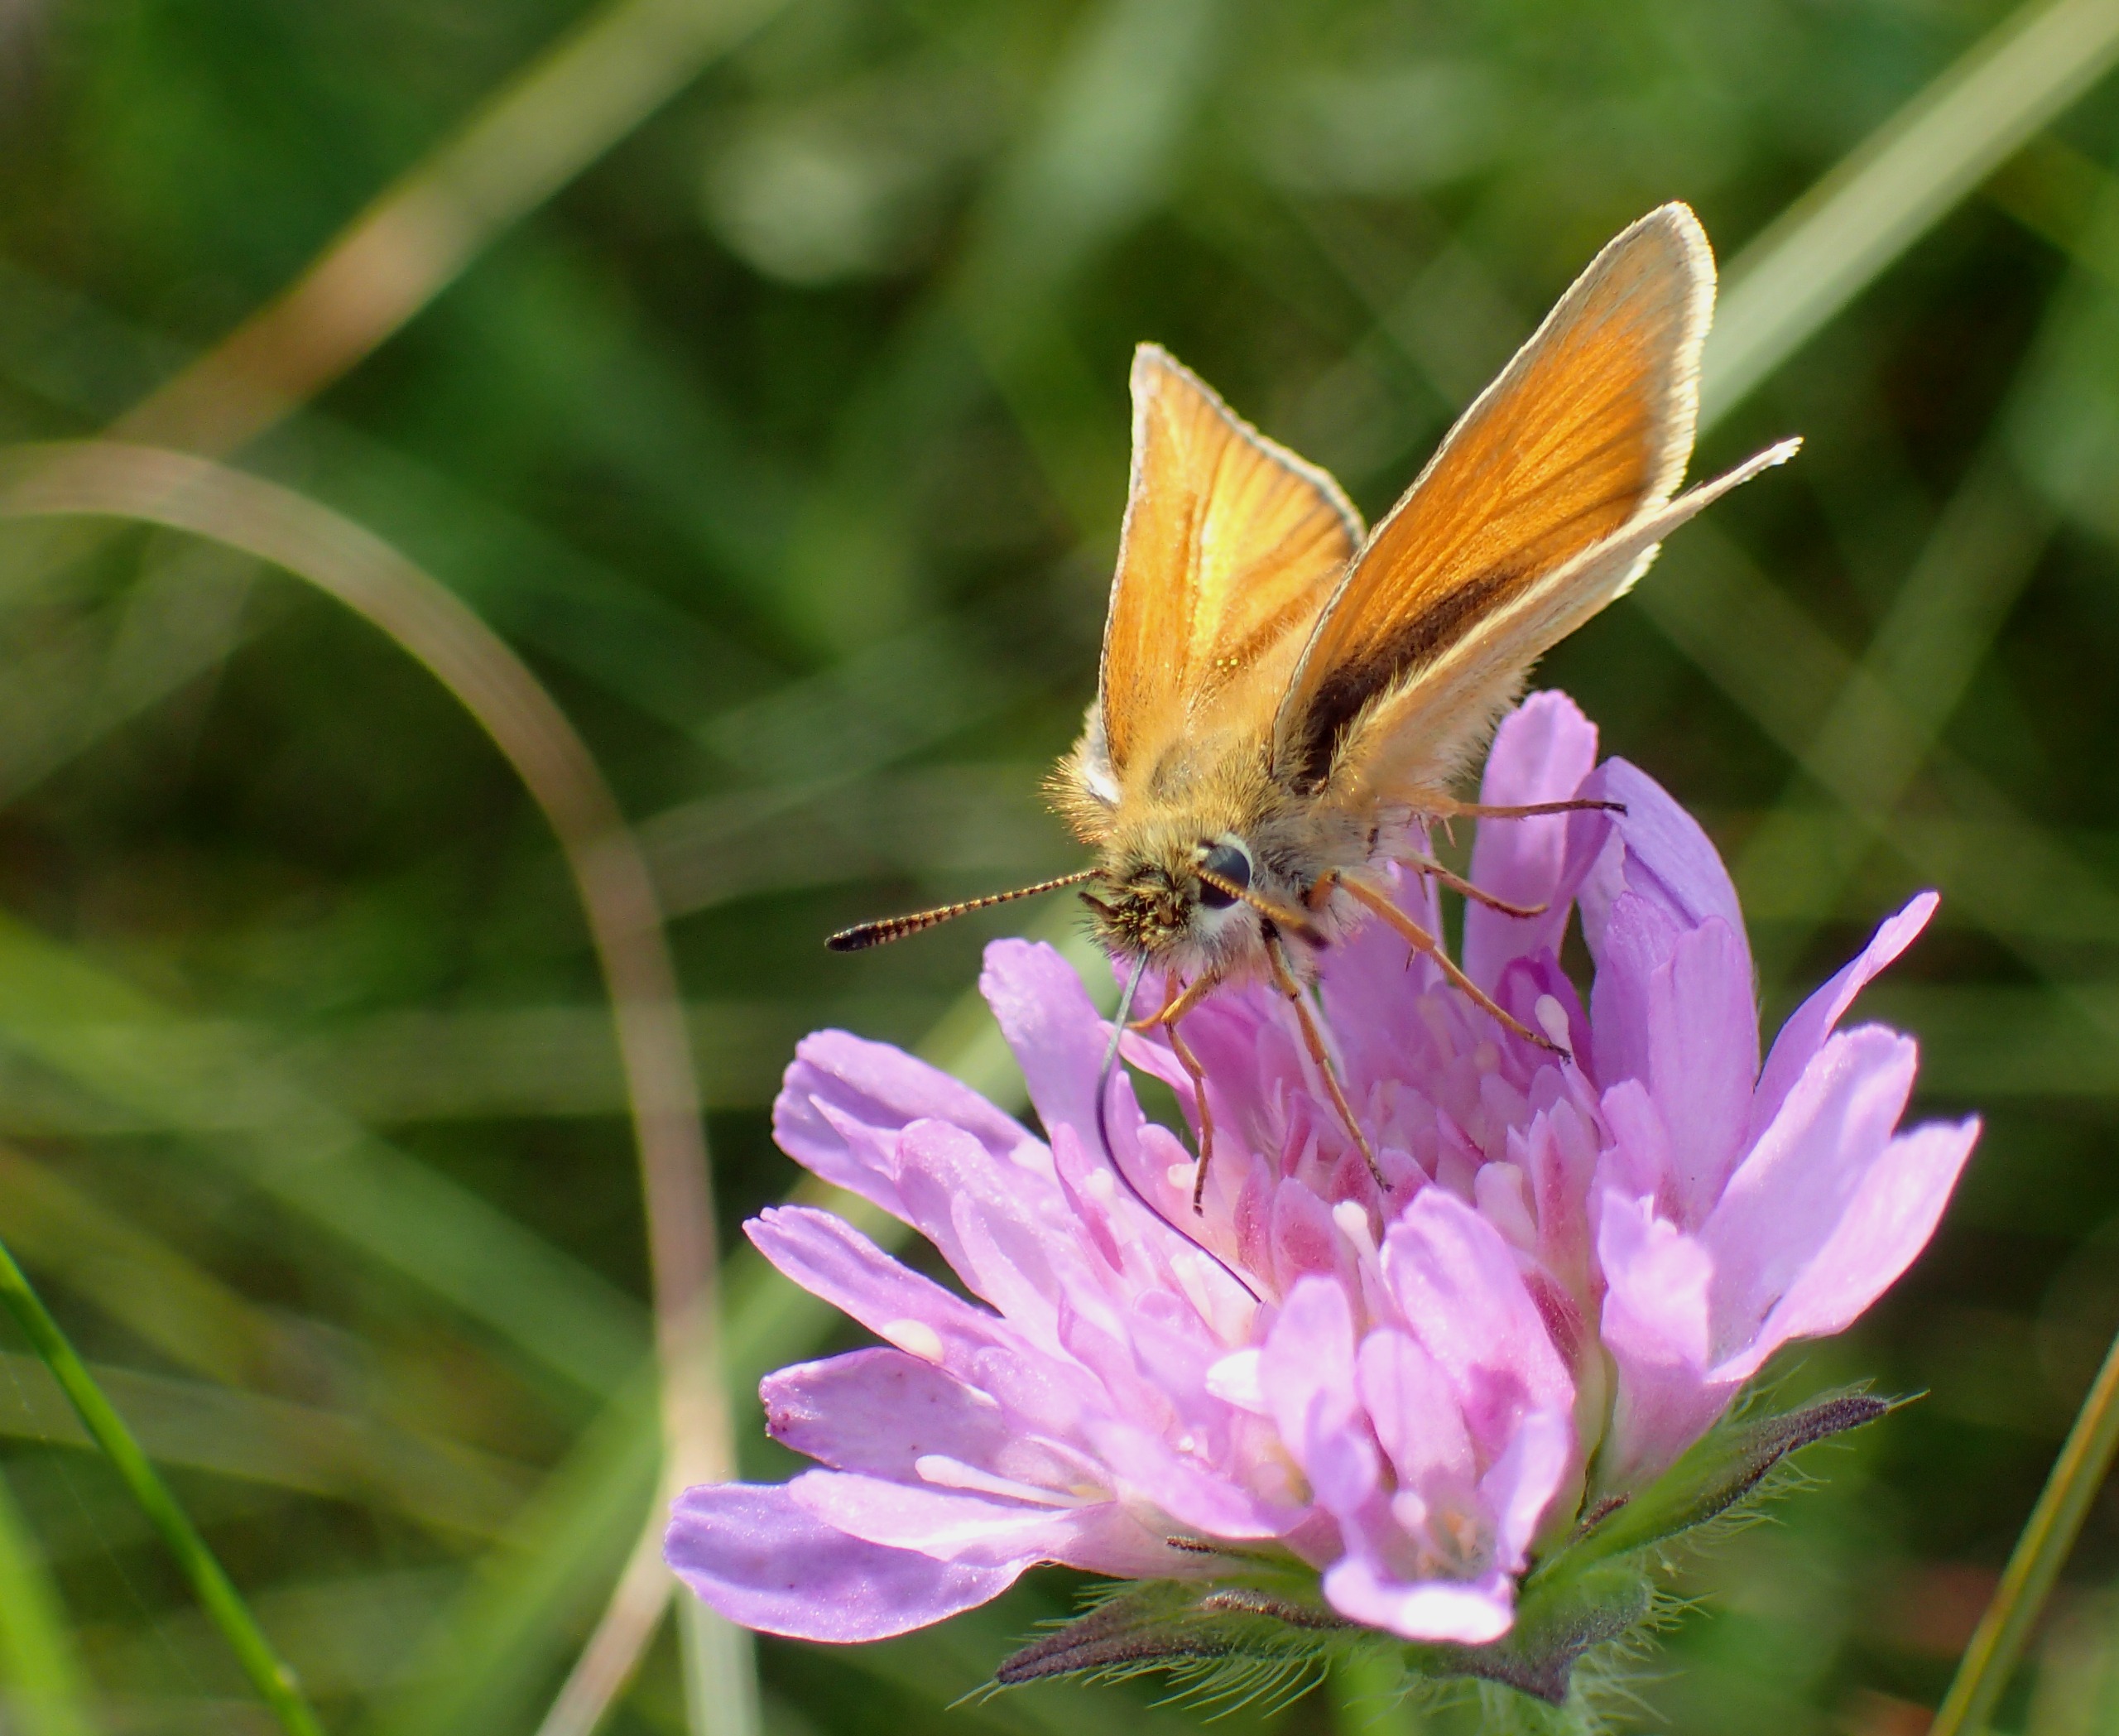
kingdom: Animalia
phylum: Arthropoda
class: Insecta
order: Lepidoptera
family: Hesperiidae
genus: Thymelicus
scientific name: Thymelicus lineola
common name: Stregbredpande
